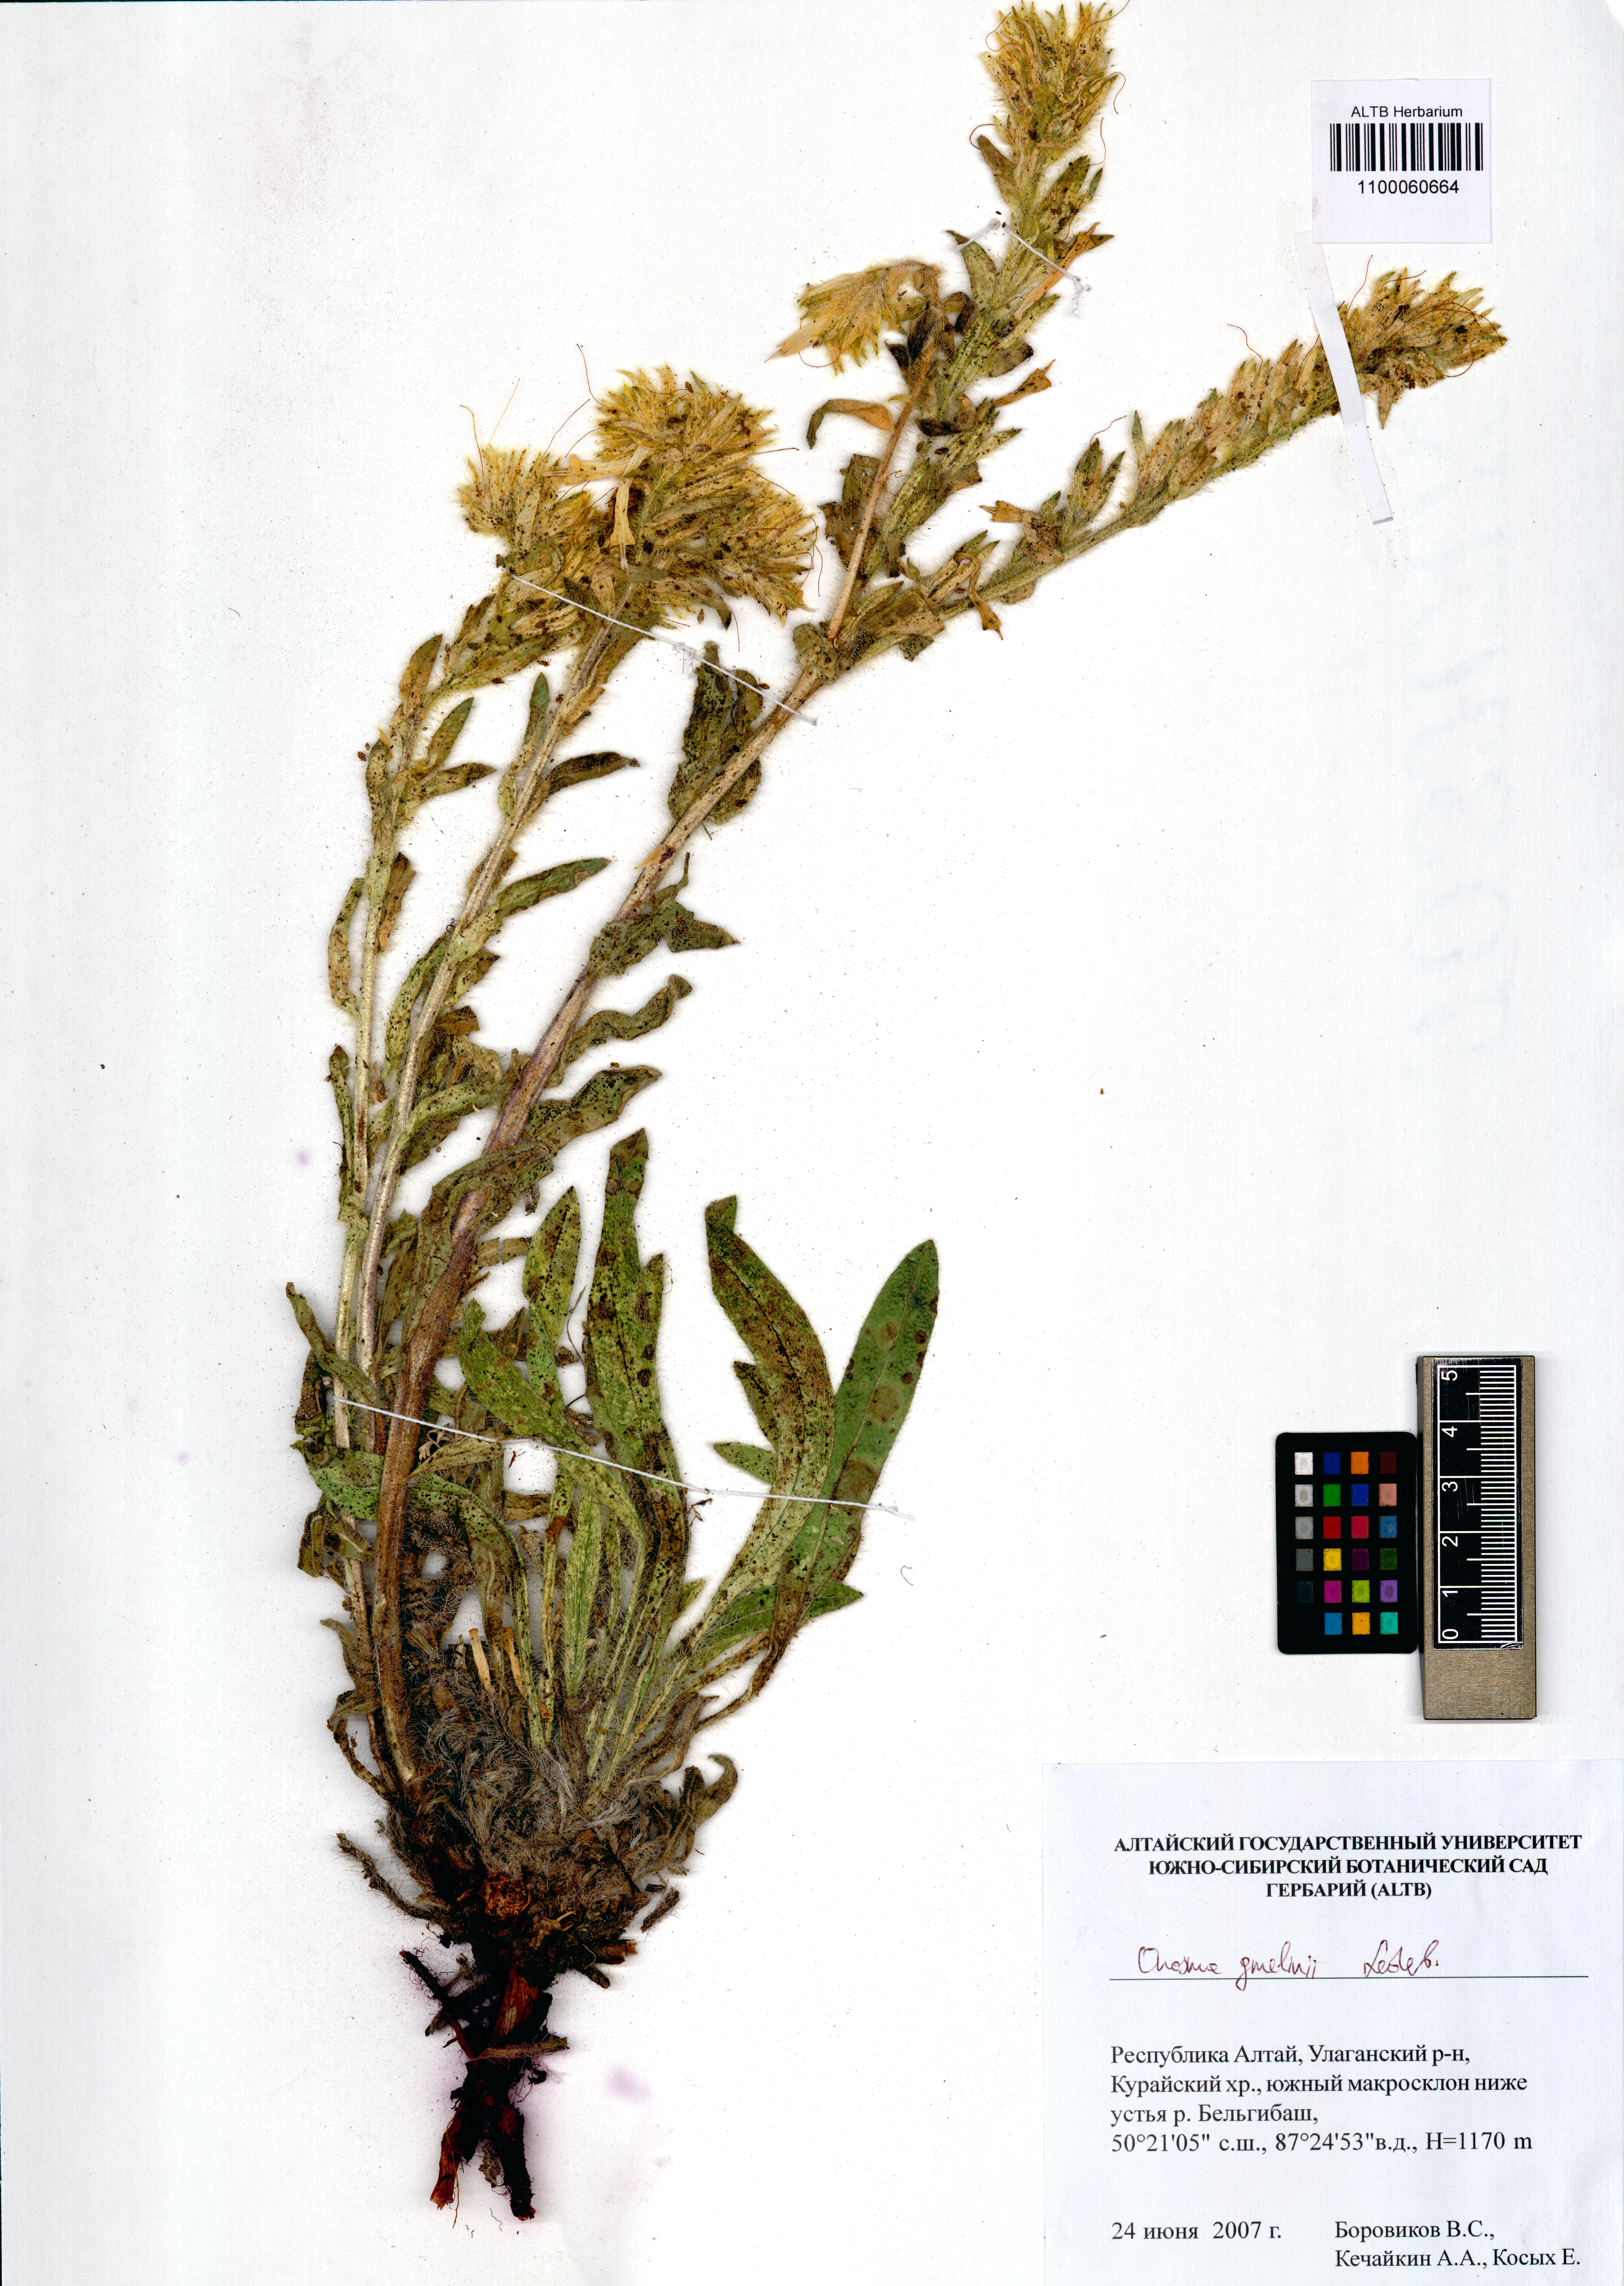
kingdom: Plantae
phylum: Tracheophyta
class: Magnoliopsida
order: Boraginales
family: Boraginaceae
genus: Onosma
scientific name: Onosma gmelinii
